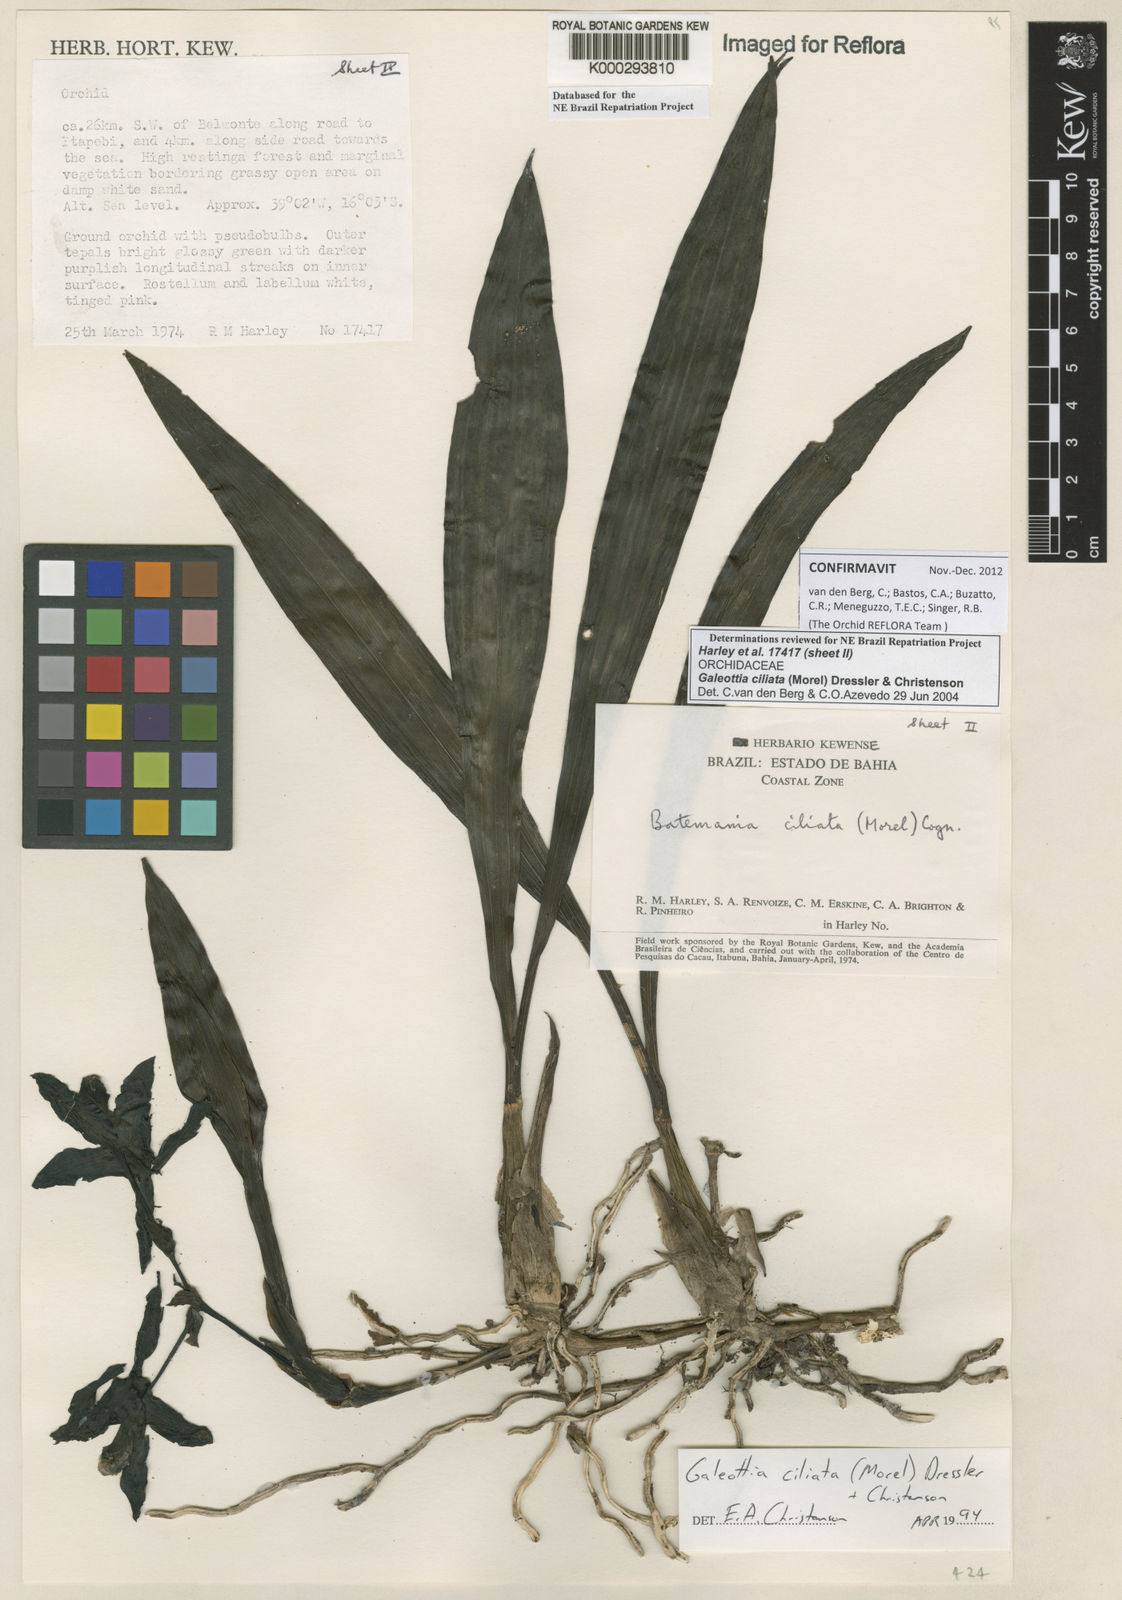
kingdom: Plantae
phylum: Tracheophyta
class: Liliopsida
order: Asparagales
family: Orchidaceae
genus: Galeottia
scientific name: Galeottia ciliata
